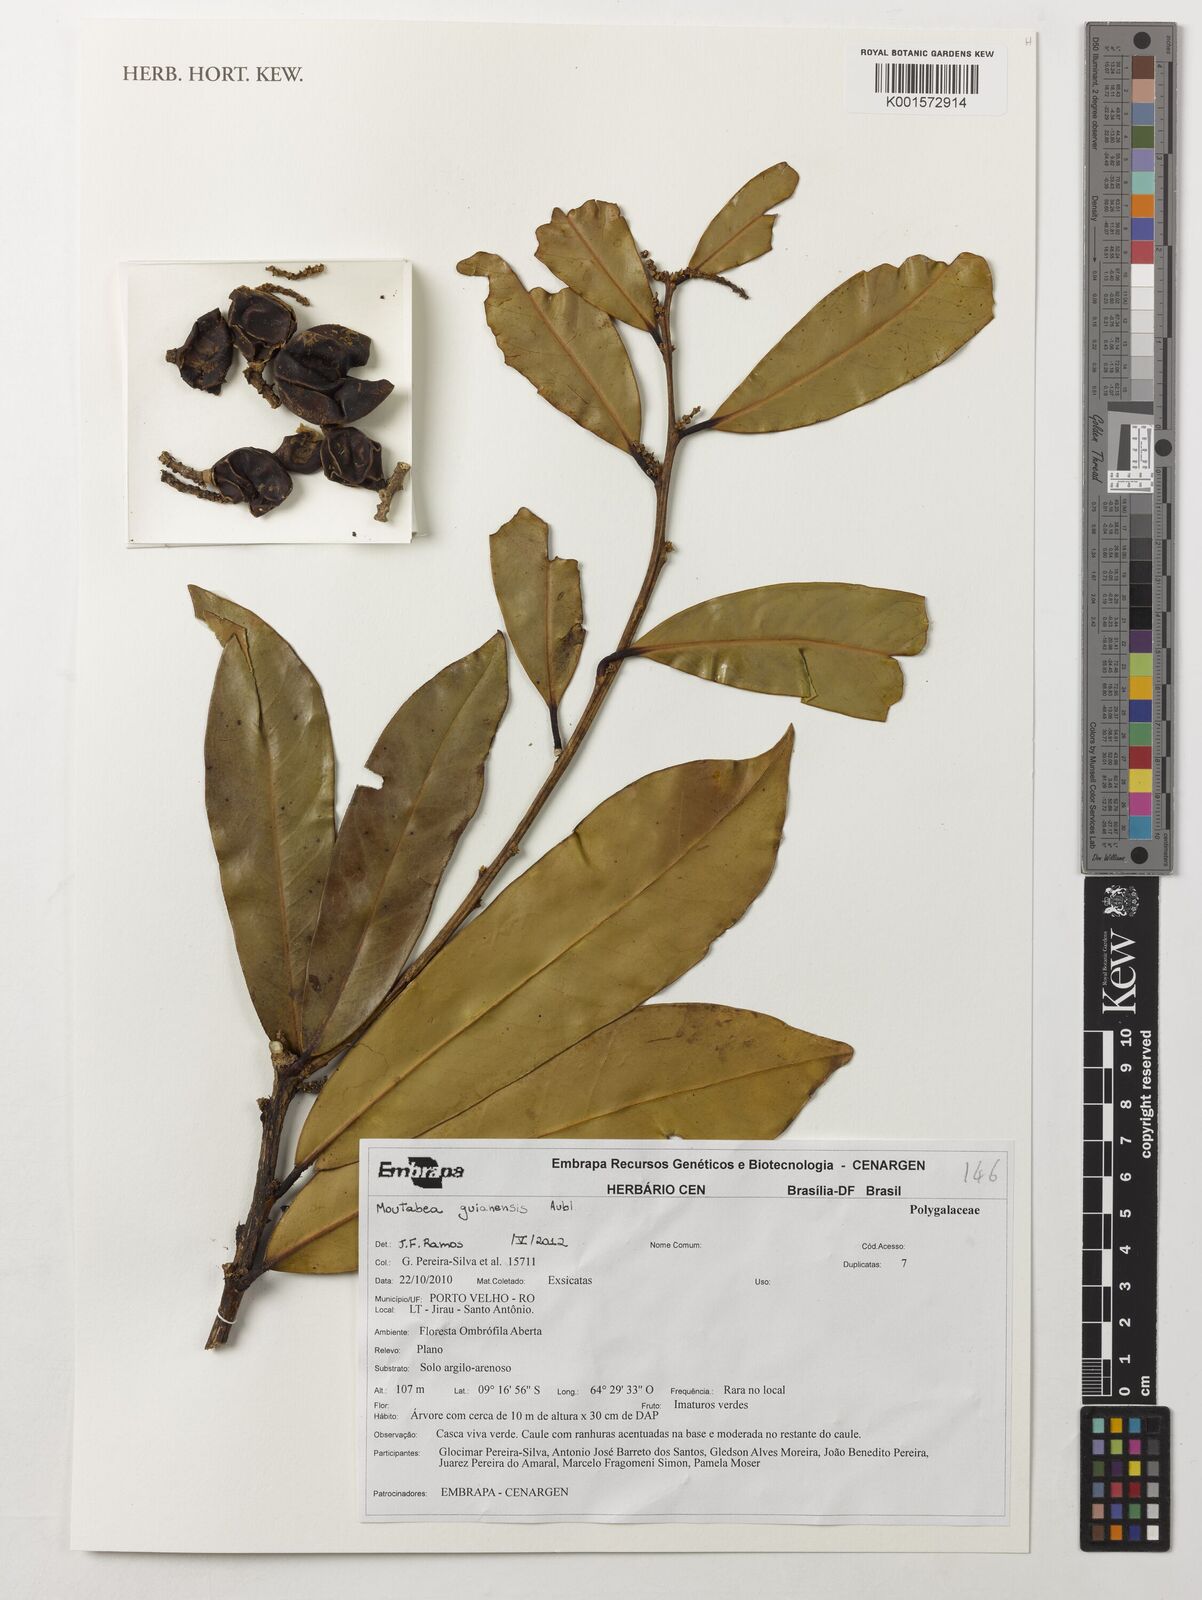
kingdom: Plantae
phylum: Tracheophyta
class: Magnoliopsida
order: Fabales
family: Polygalaceae
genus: Moutabea
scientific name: Moutabea guianensis
